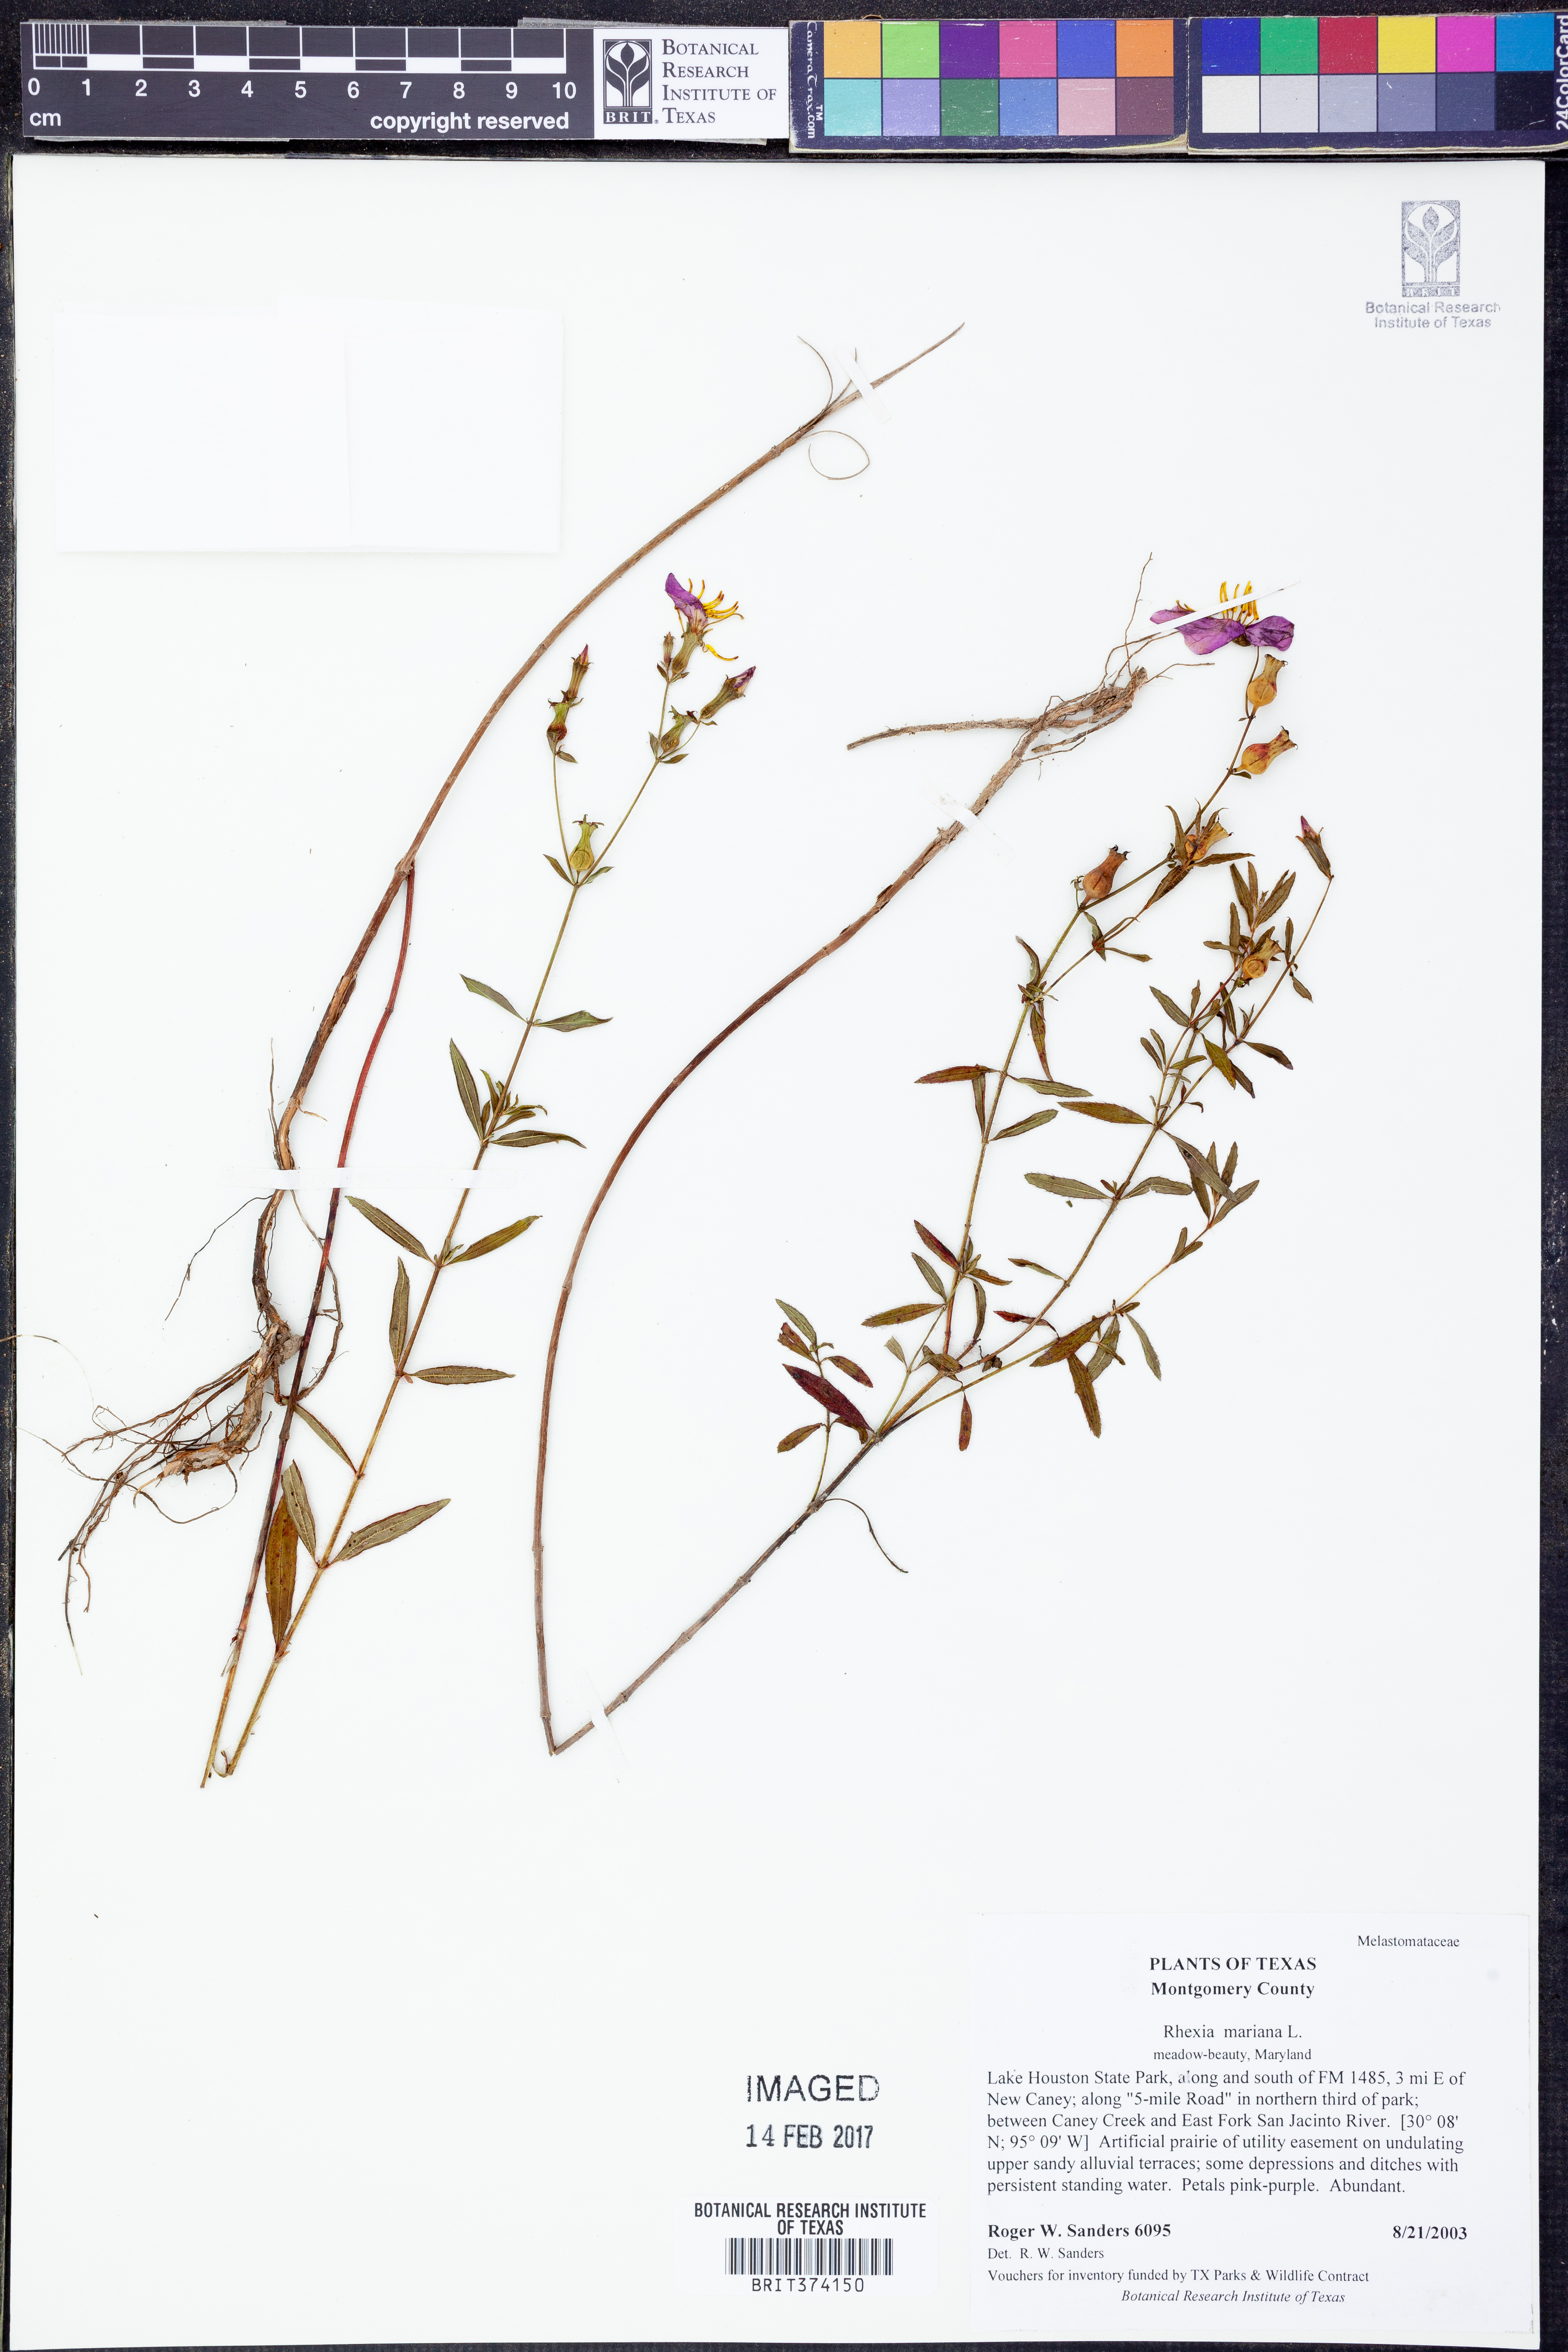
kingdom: Plantae
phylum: Tracheophyta
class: Magnoliopsida
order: Myrtales
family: Melastomataceae
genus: Rhexia
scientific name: Rhexia mariana
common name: Dull meadow-pitcher
